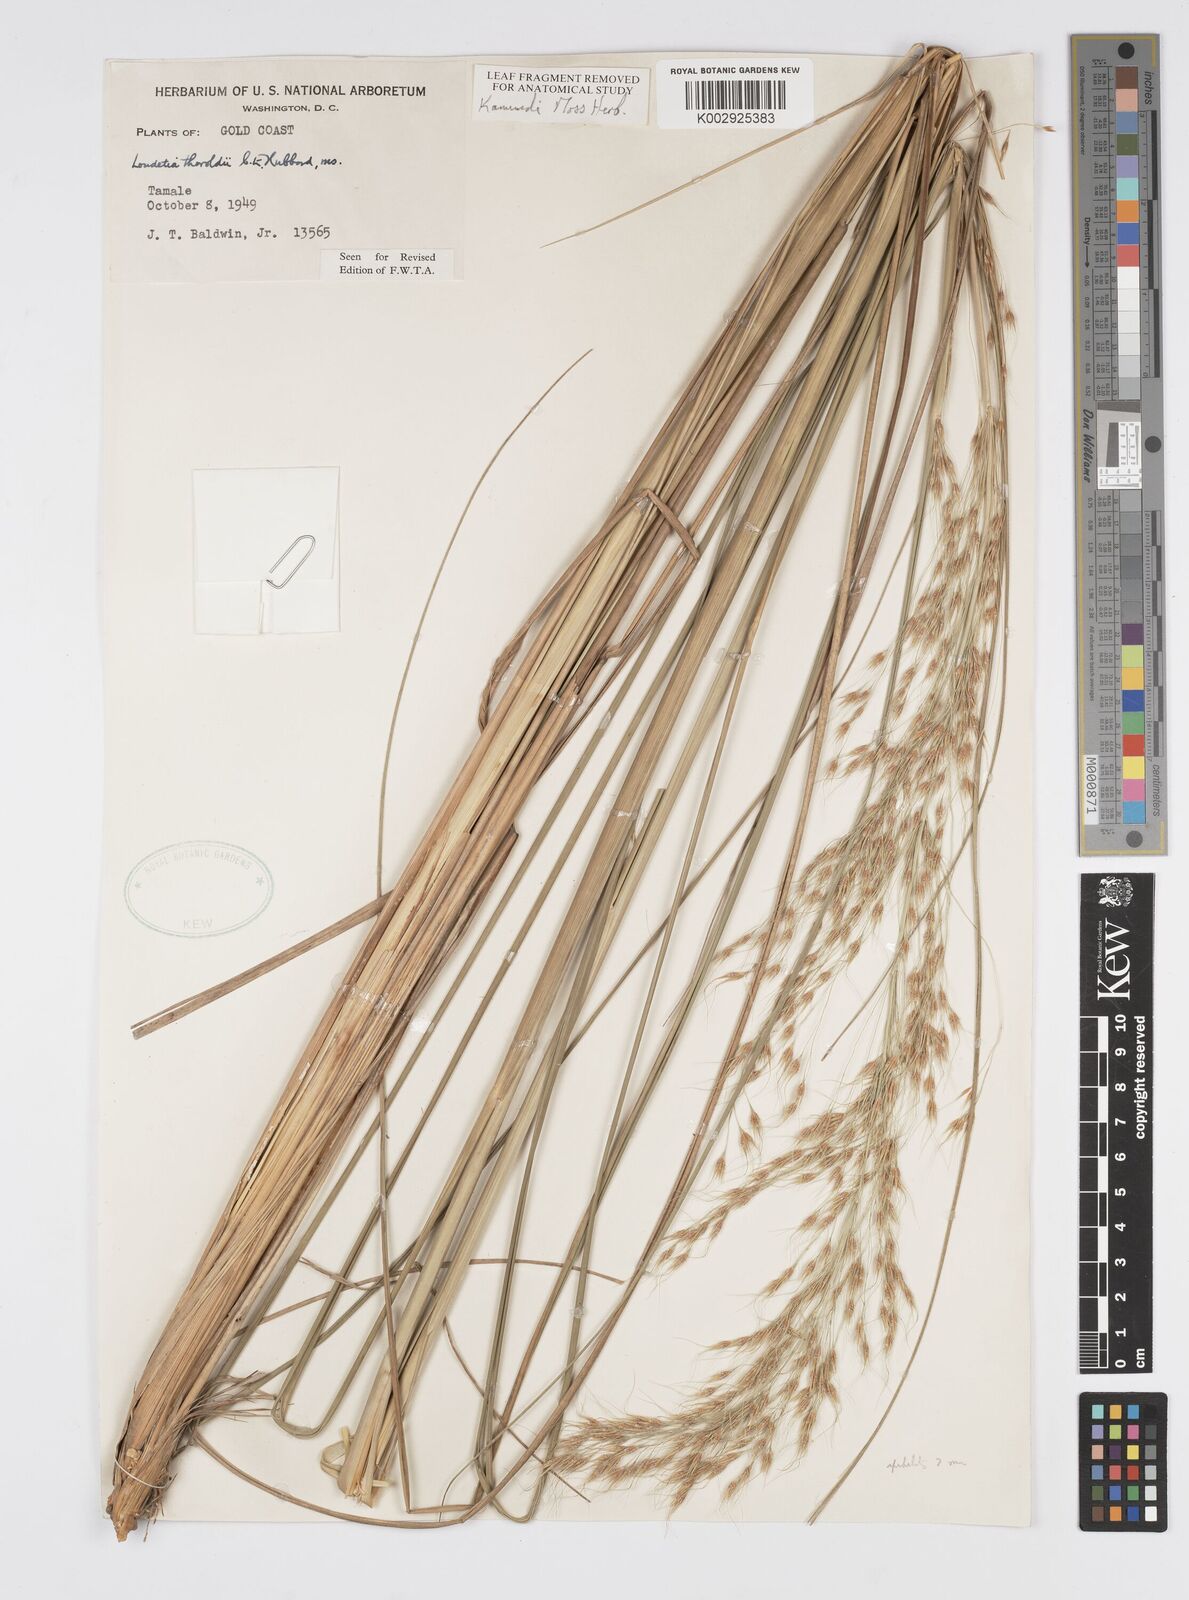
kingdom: Plantae
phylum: Tracheophyta
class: Liliopsida
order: Poales
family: Poaceae
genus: Loudetiopsis
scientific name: Loudetiopsis thoroldii
